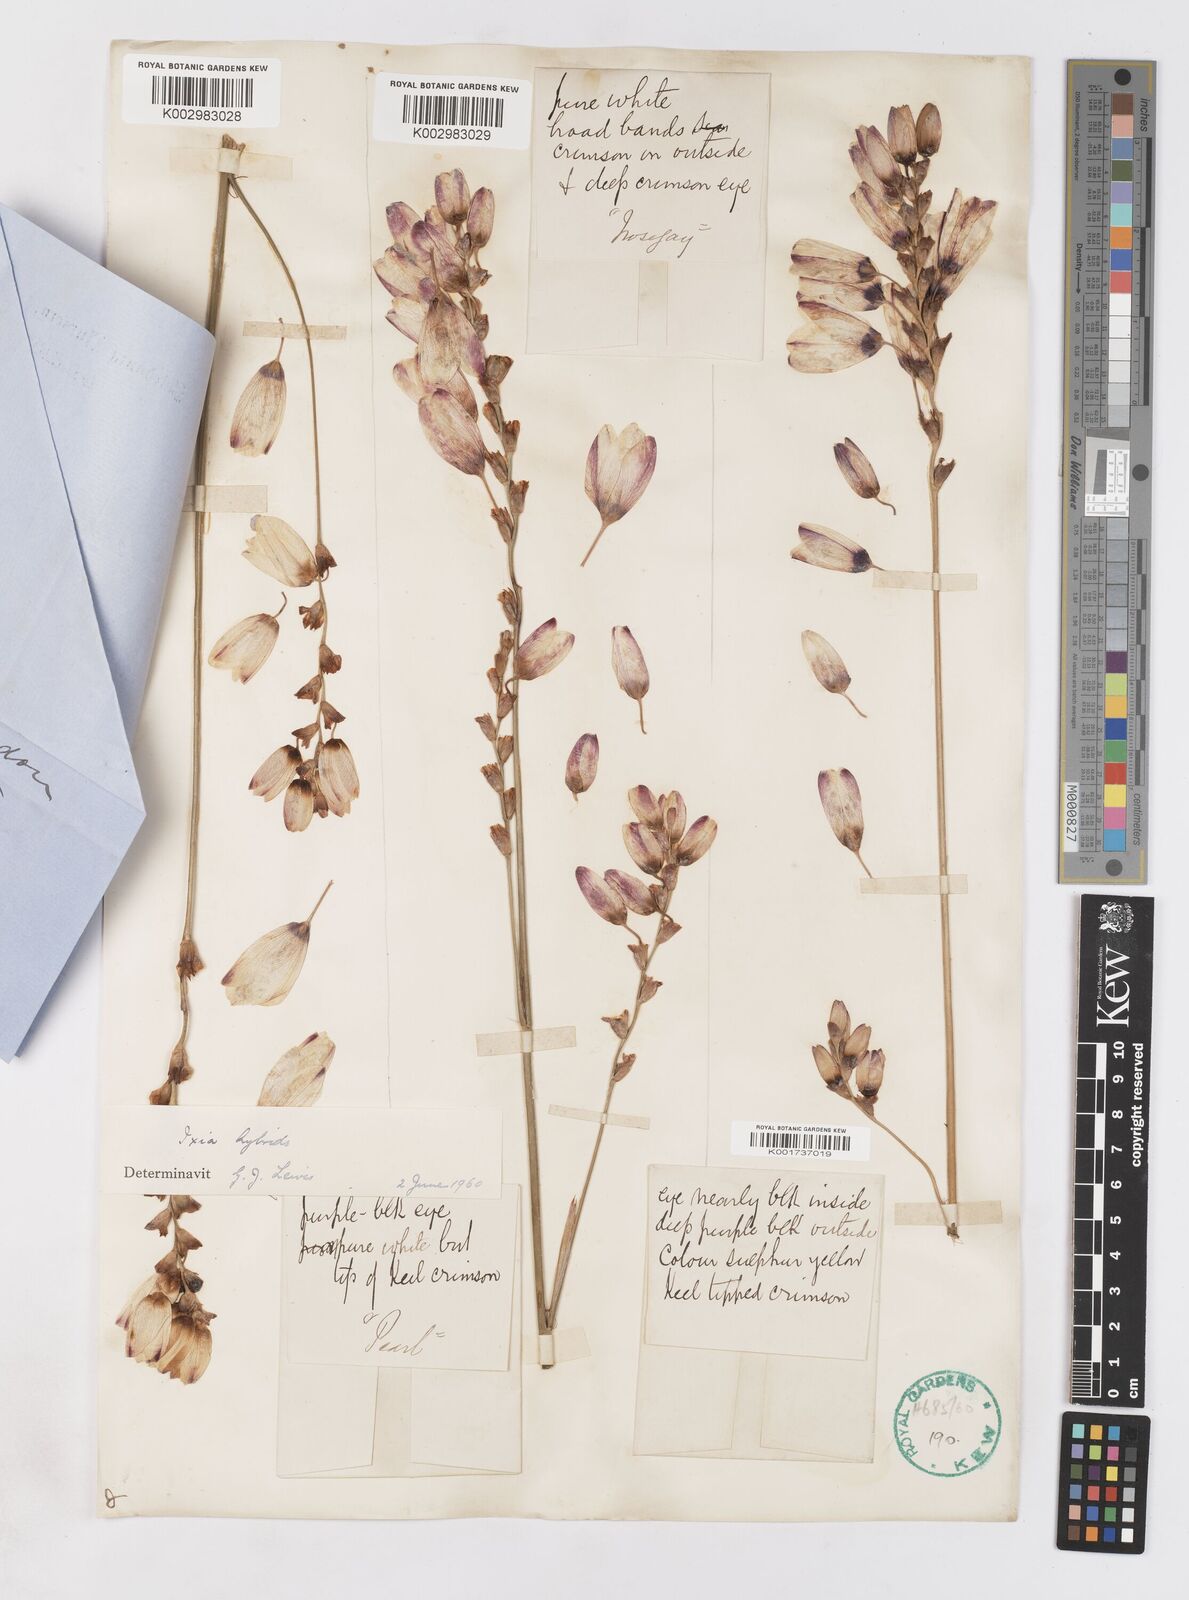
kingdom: Plantae
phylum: Tracheophyta
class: Liliopsida
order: Asparagales
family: Iridaceae
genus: Ixia
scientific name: Ixia polystachya
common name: White-and-yellow-flower cornlily
